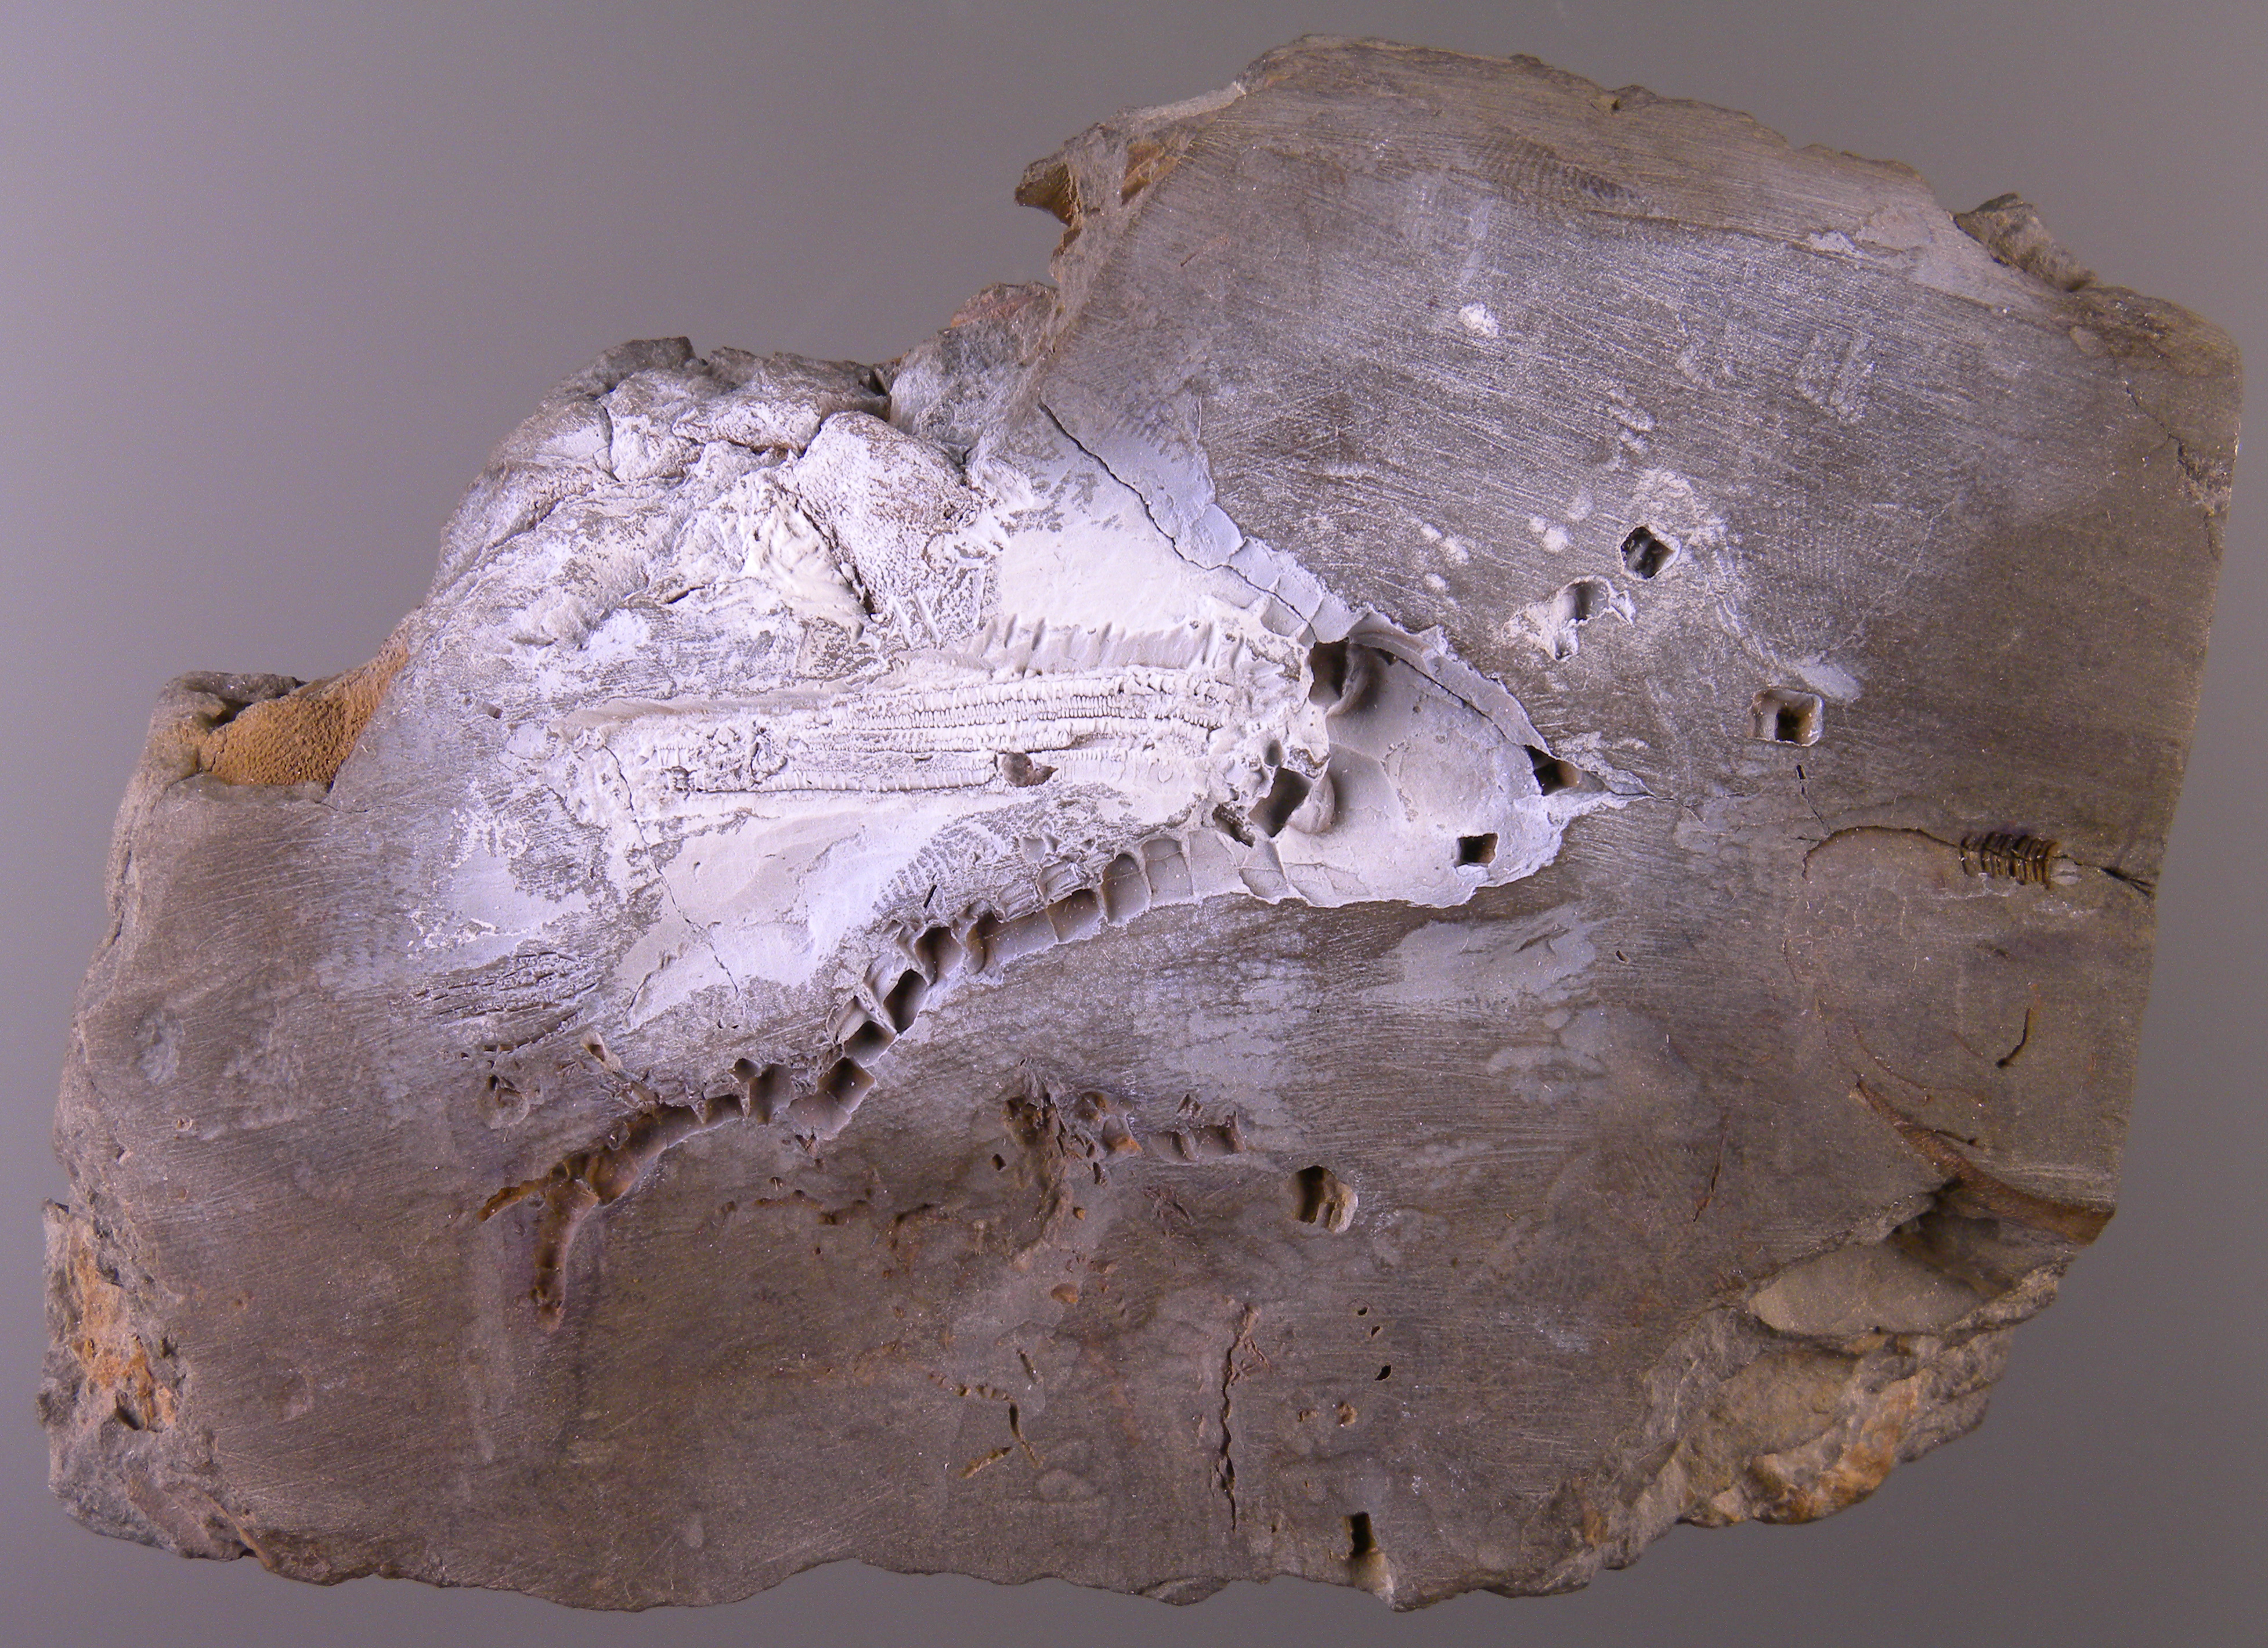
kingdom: Animalia
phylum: Echinodermata
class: Crinoidea
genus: Eifelocrinus
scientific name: Eifelocrinus
